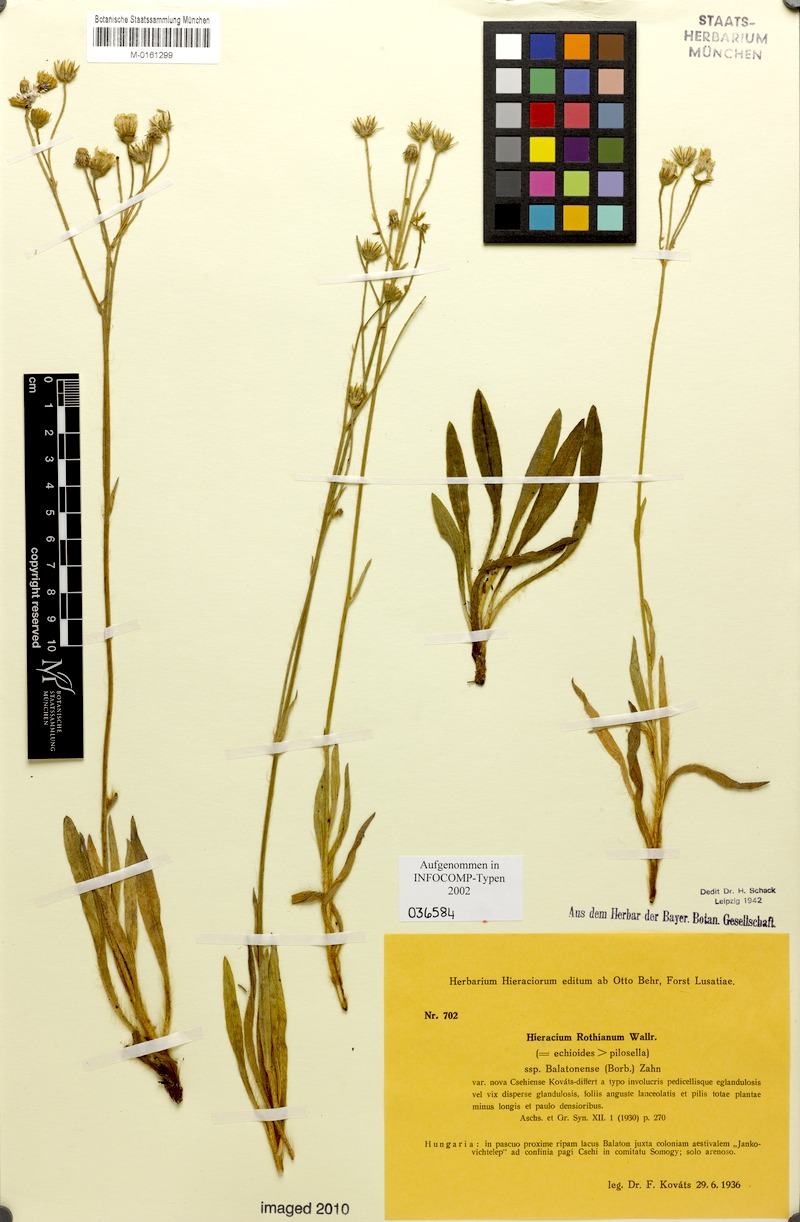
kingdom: Plantae
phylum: Tracheophyta
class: Magnoliopsida
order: Asterales
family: Asteraceae
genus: Pilosella
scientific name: Pilosella rothiana
